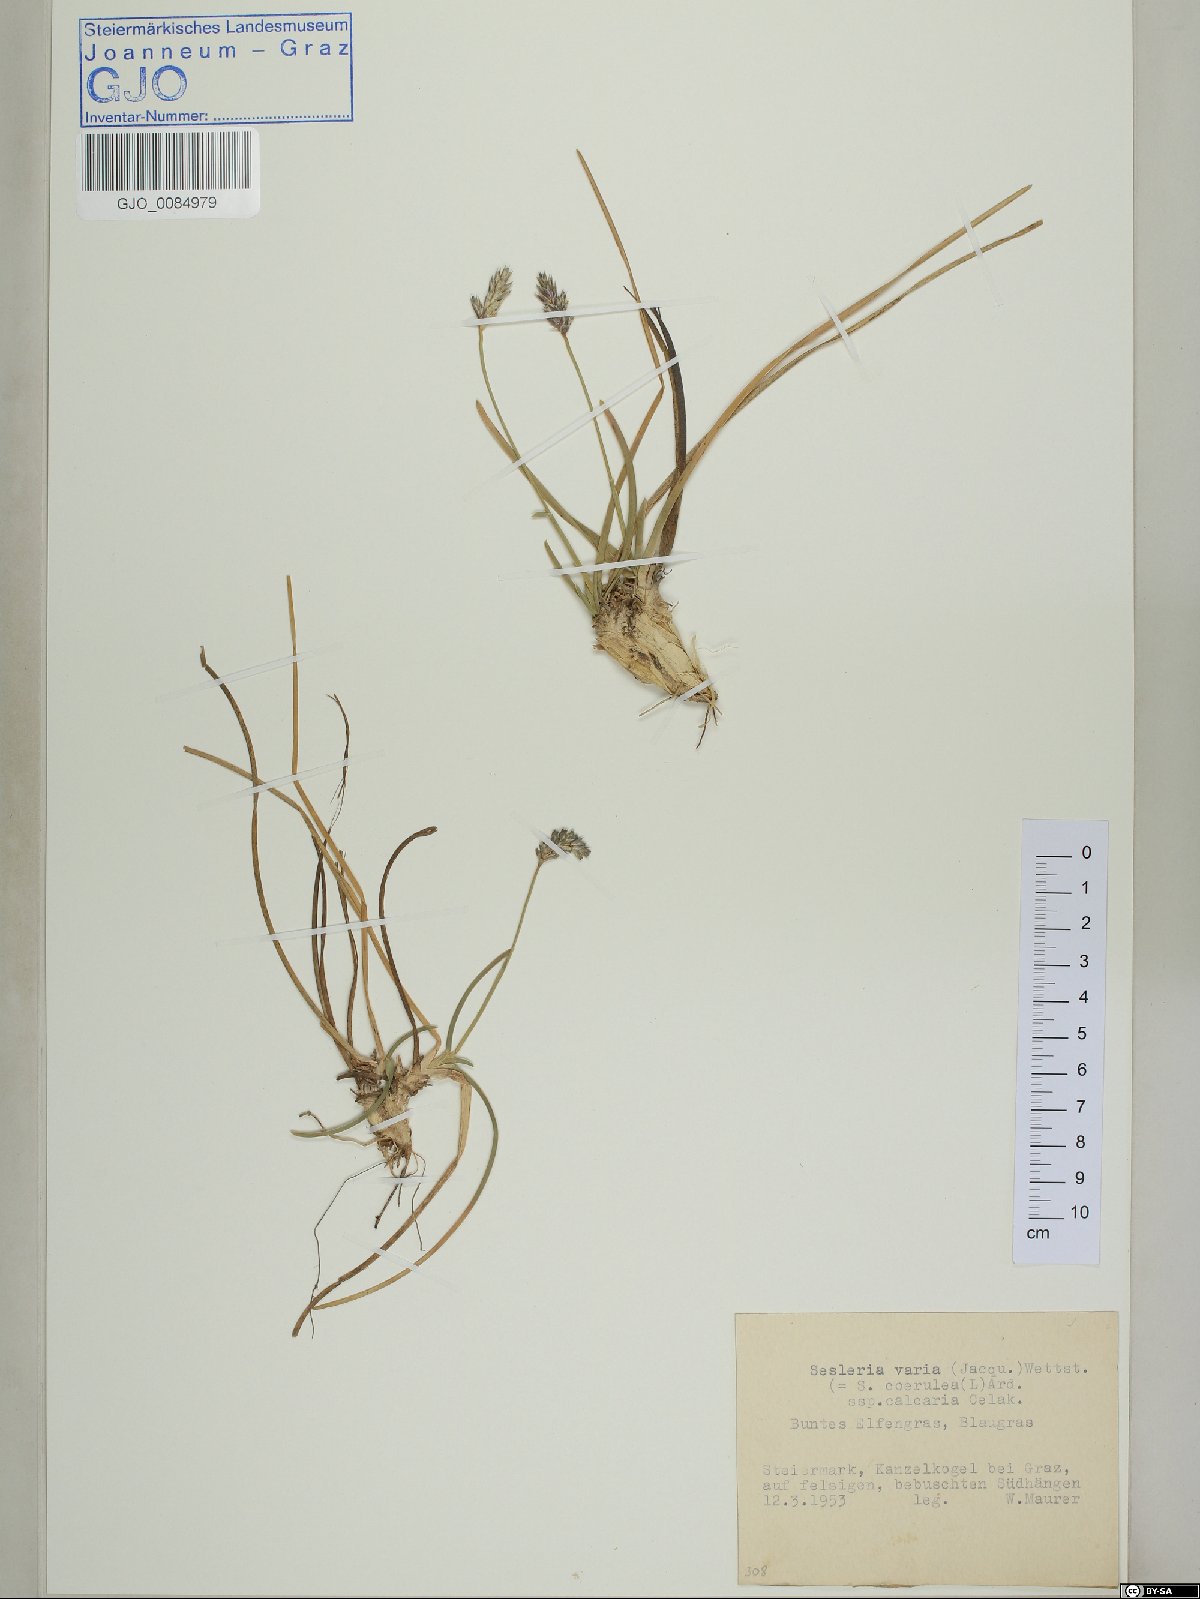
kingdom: Plantae
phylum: Tracheophyta
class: Liliopsida
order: Poales
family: Poaceae
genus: Sesleria
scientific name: Sesleria caerulea
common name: Blue moor-grass
